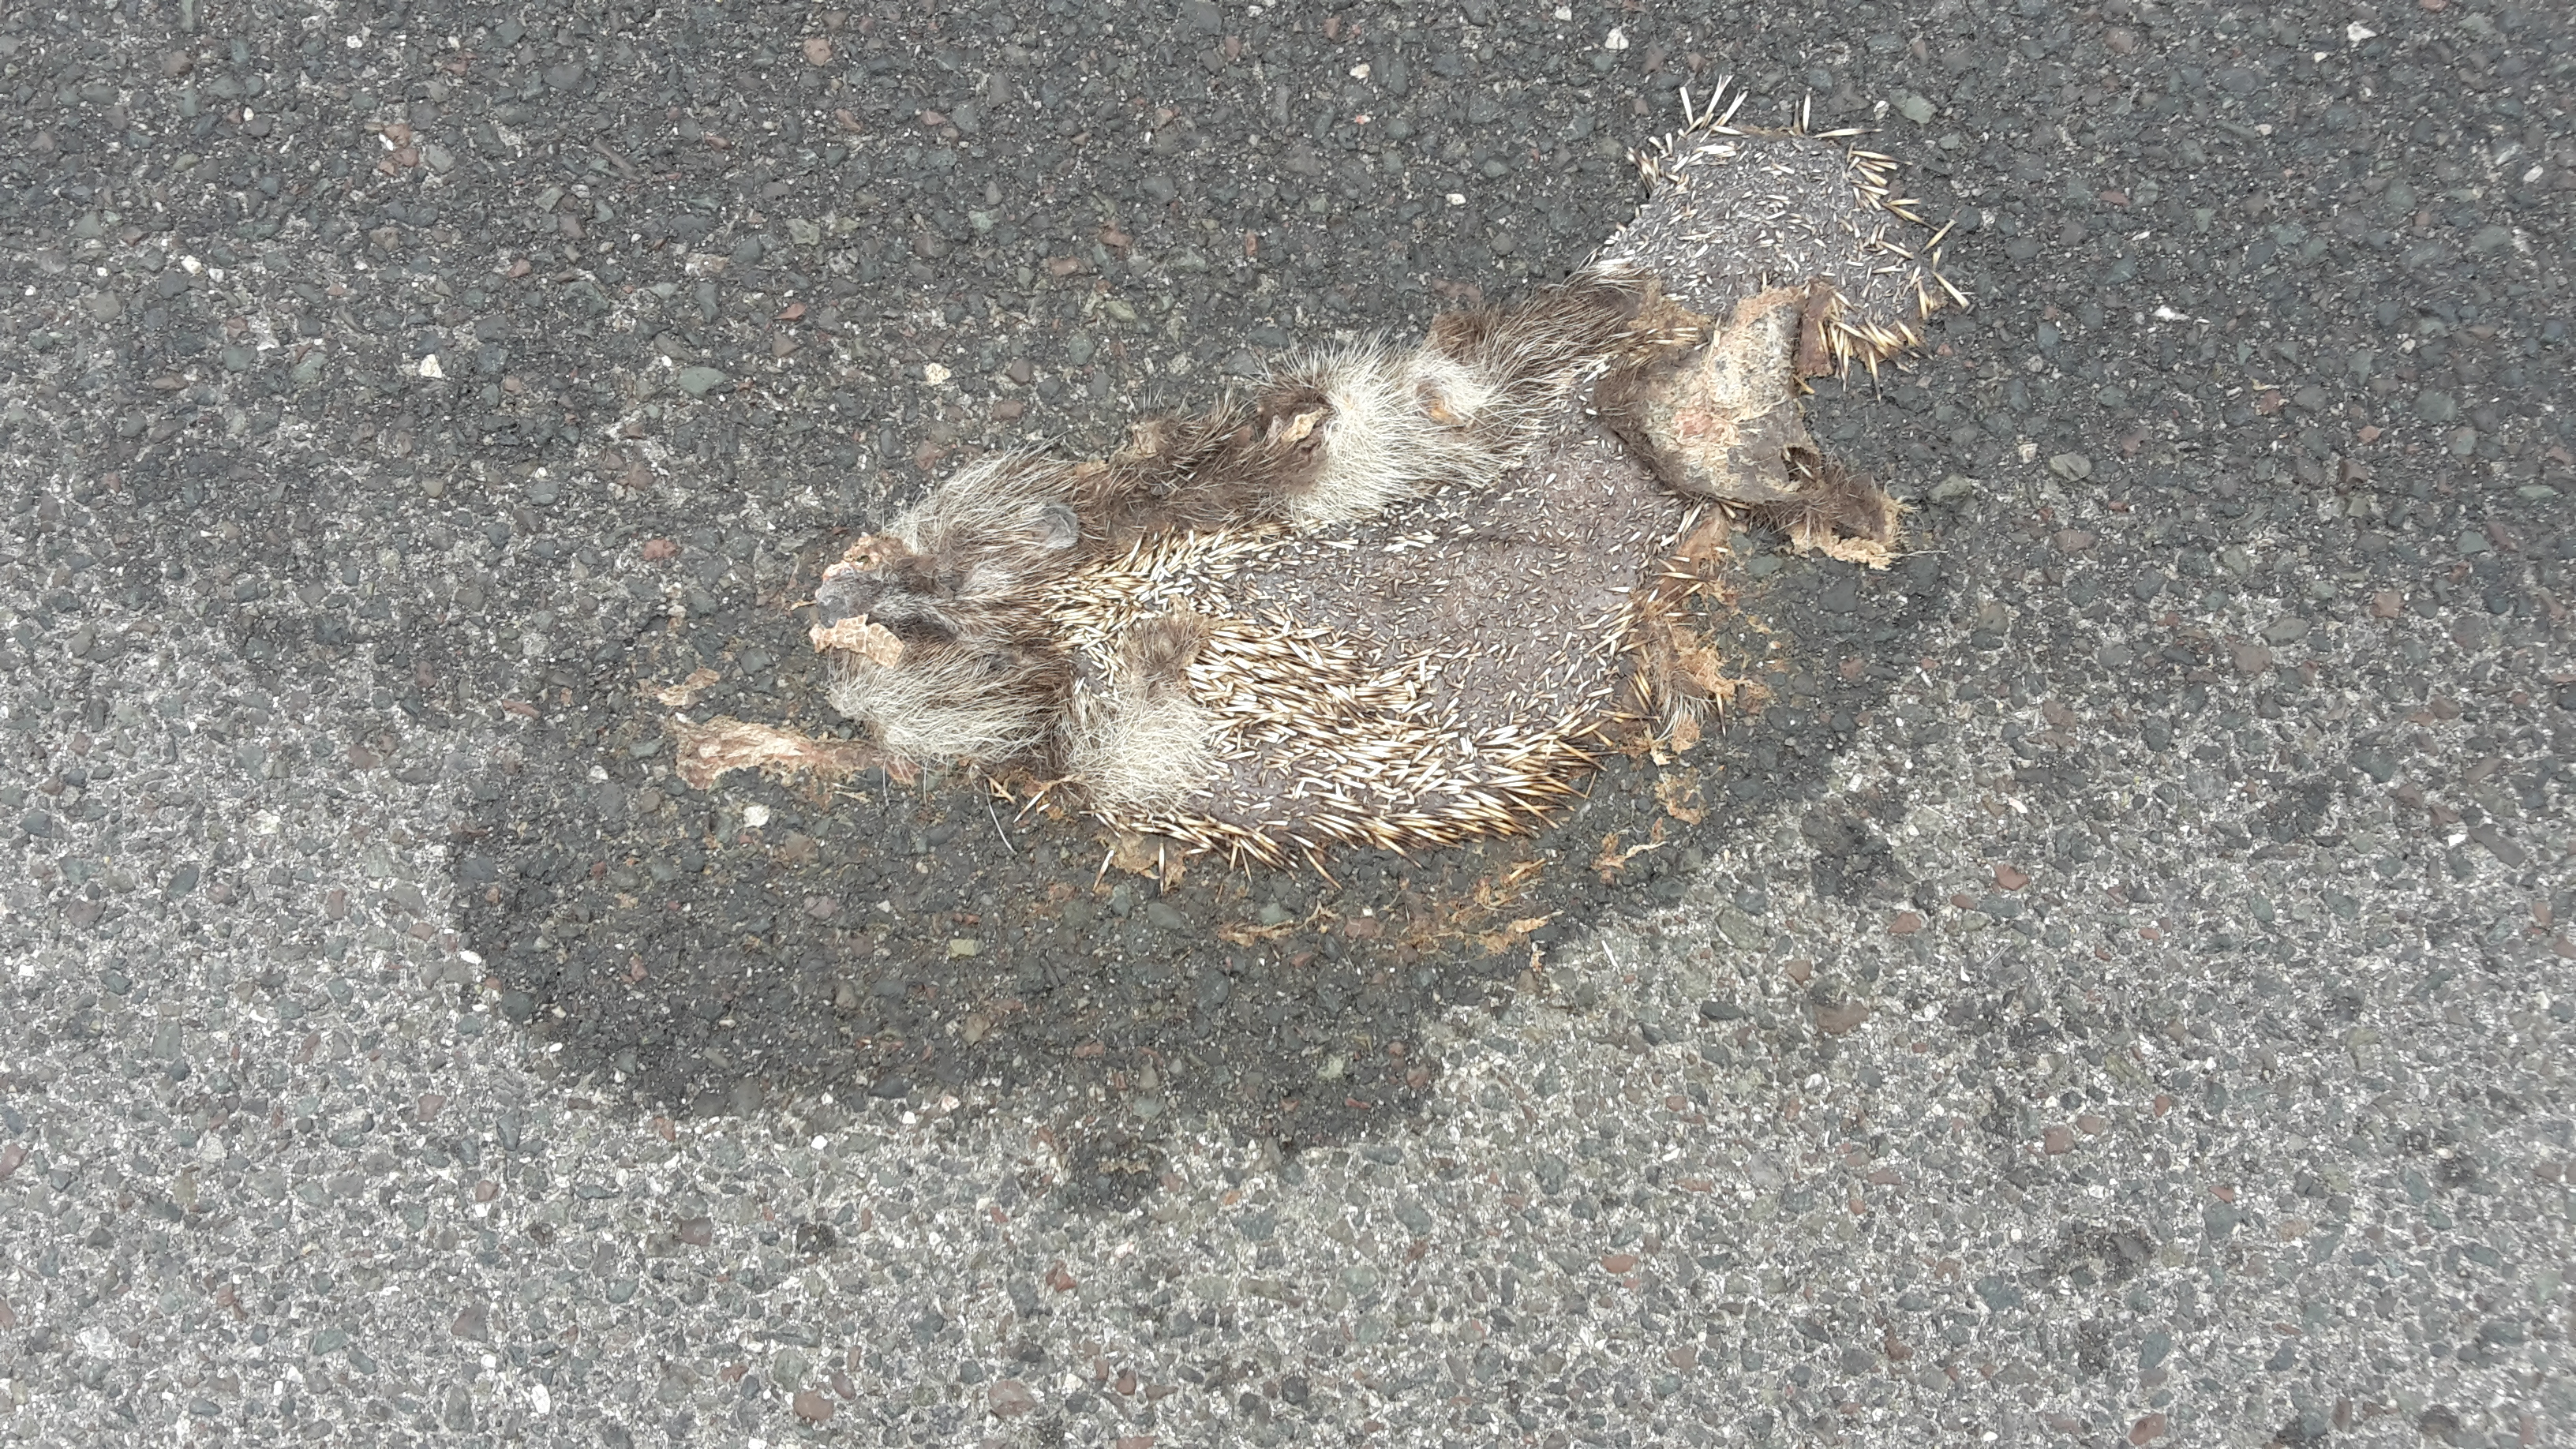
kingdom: Animalia
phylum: Chordata
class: Mammalia
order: Erinaceomorpha
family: Erinaceidae
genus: Erinaceus
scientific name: Erinaceus
